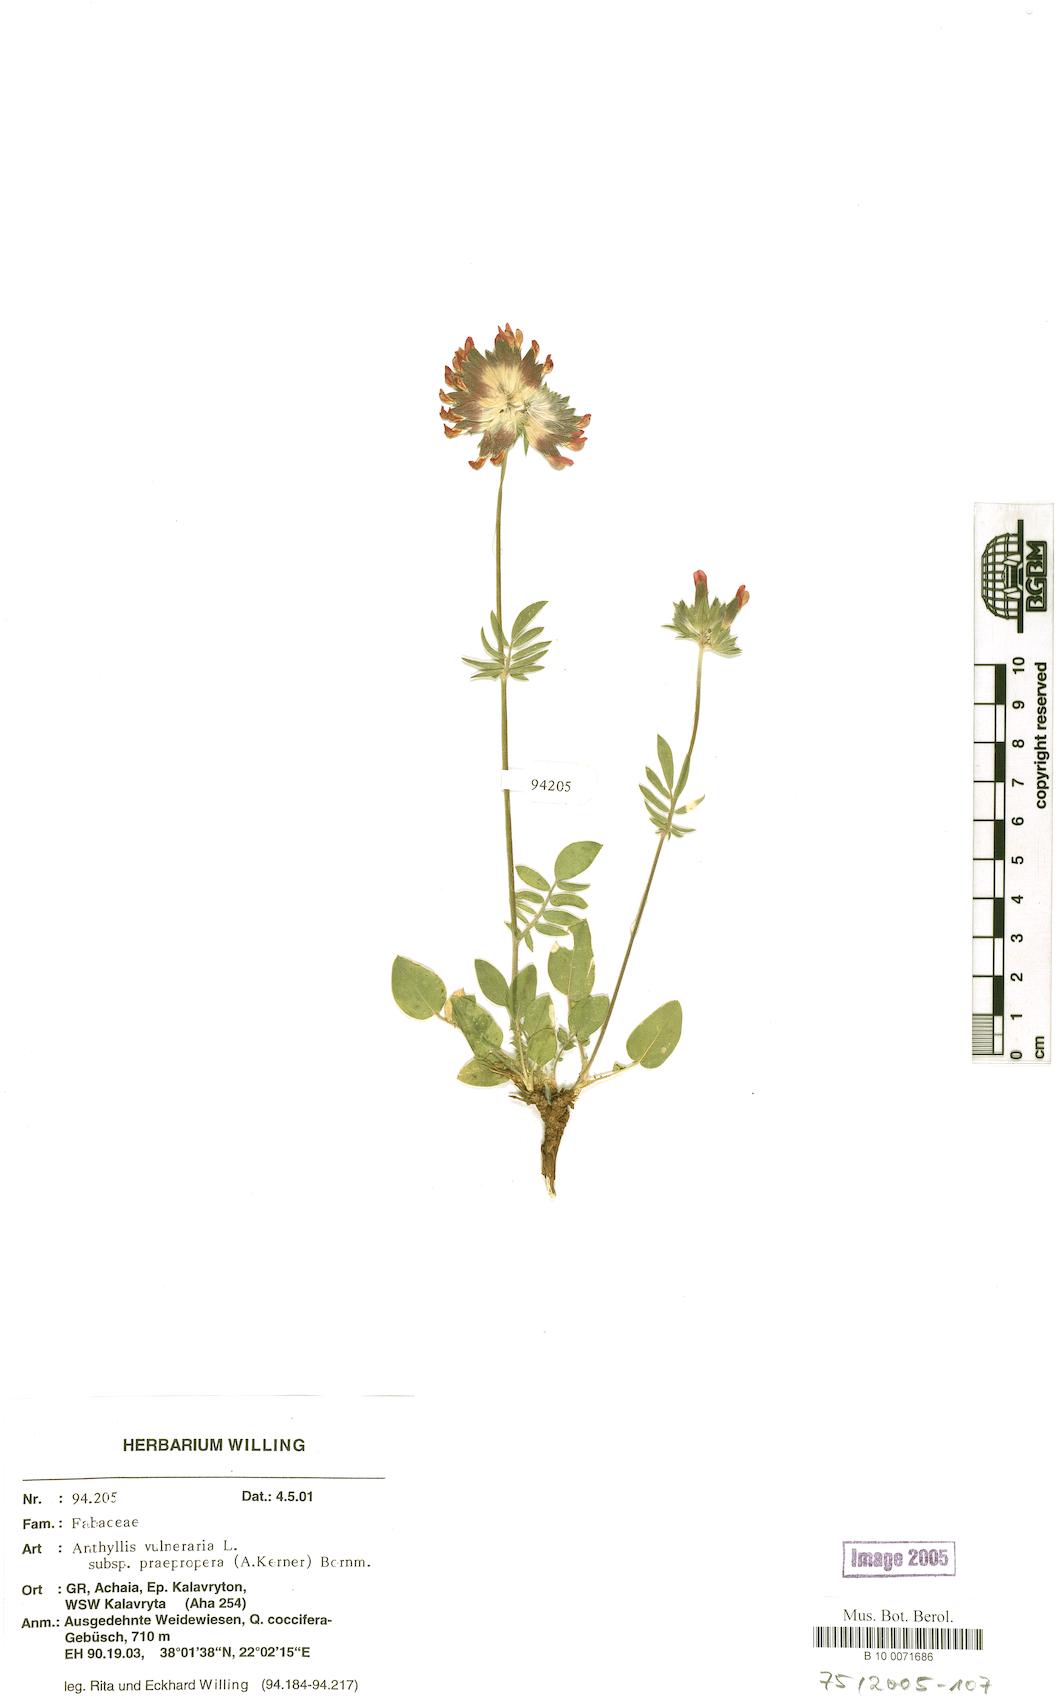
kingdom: Plantae
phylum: Tracheophyta
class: Magnoliopsida
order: Fabales
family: Fabaceae
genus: Anthyllis
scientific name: Anthyllis vulneraria
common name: Kidney vetch
